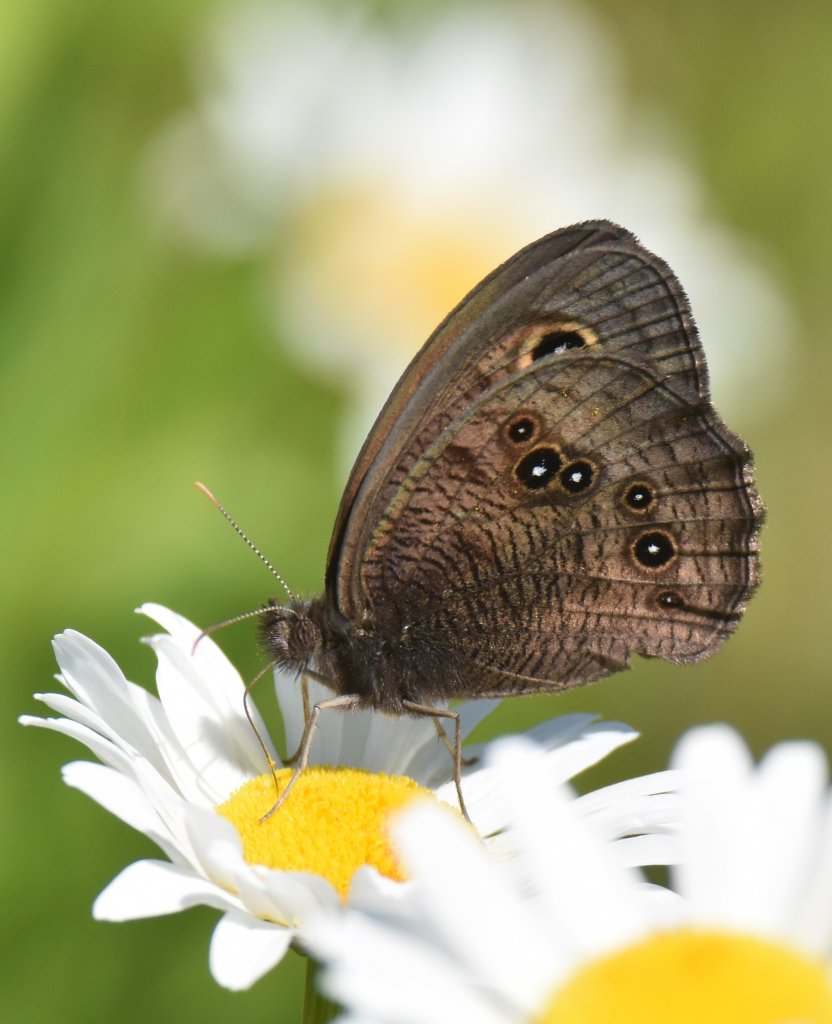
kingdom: Animalia
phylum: Arthropoda
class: Insecta
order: Lepidoptera
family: Nymphalidae
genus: Cercyonis
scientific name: Cercyonis pegala
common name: Common Wood-Nymph
